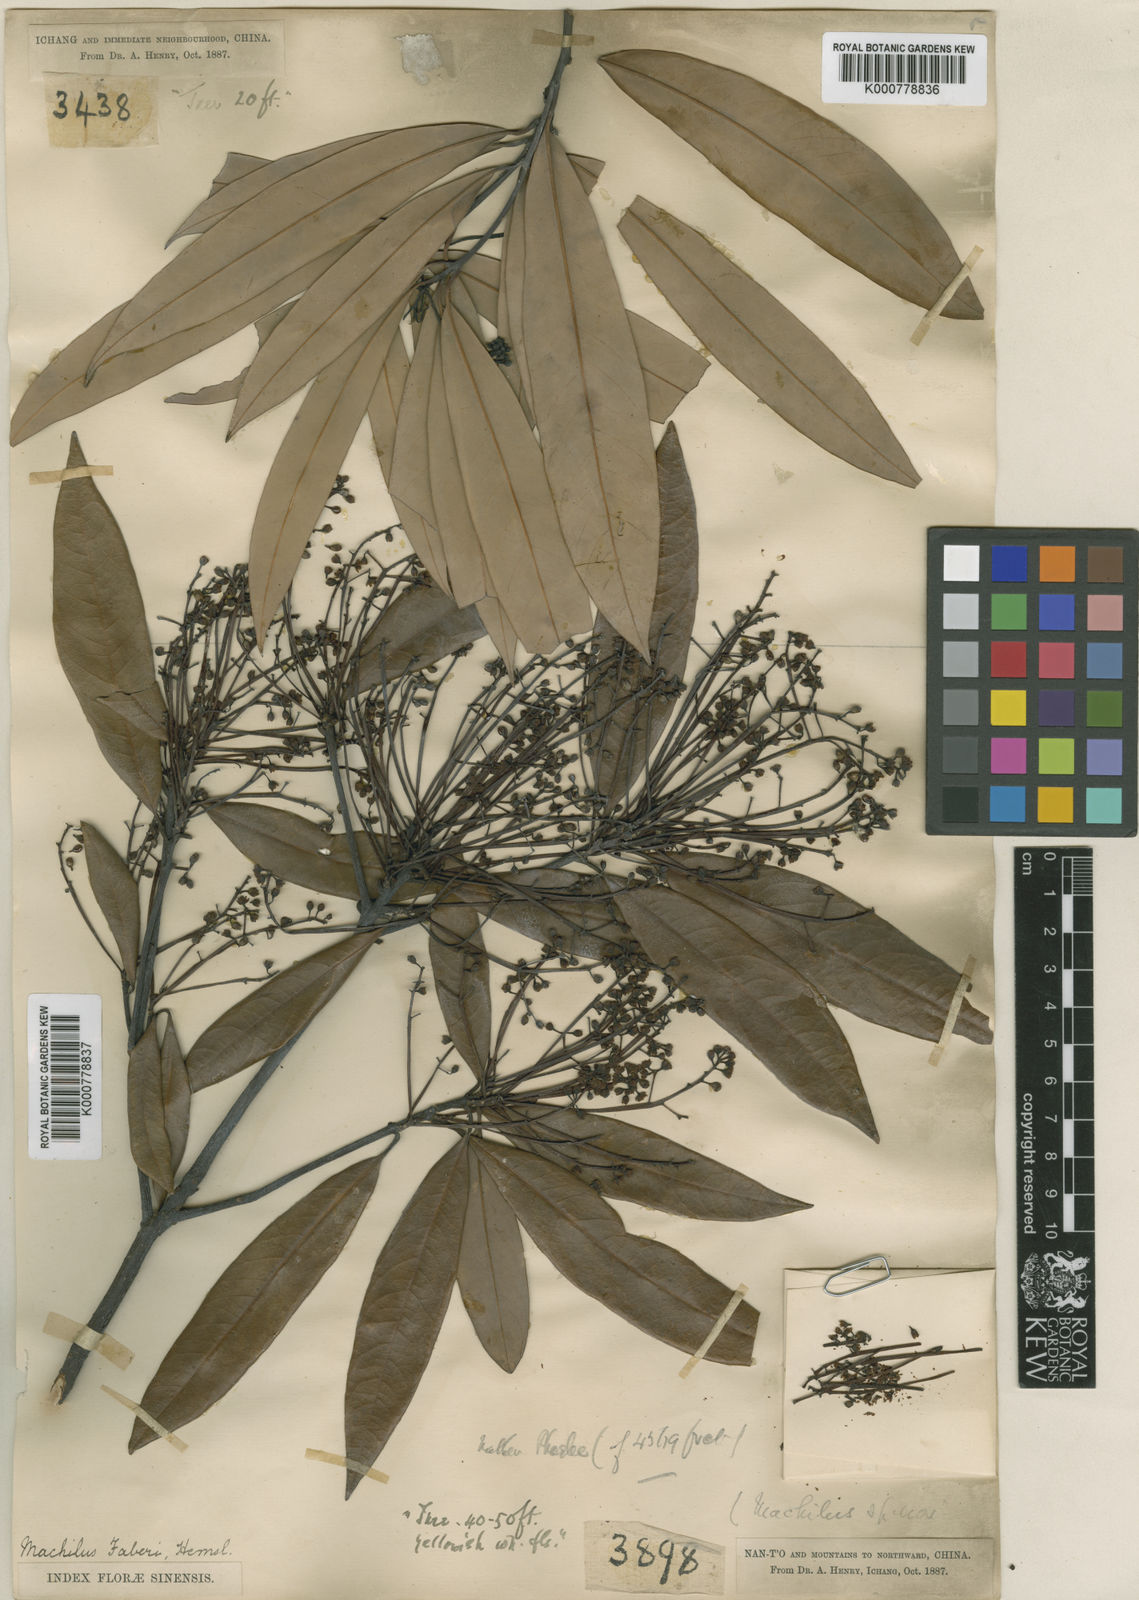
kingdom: Plantae
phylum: Tracheophyta
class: Magnoliopsida
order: Laurales
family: Lauraceae
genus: Phoebe
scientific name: Phoebe faberi
